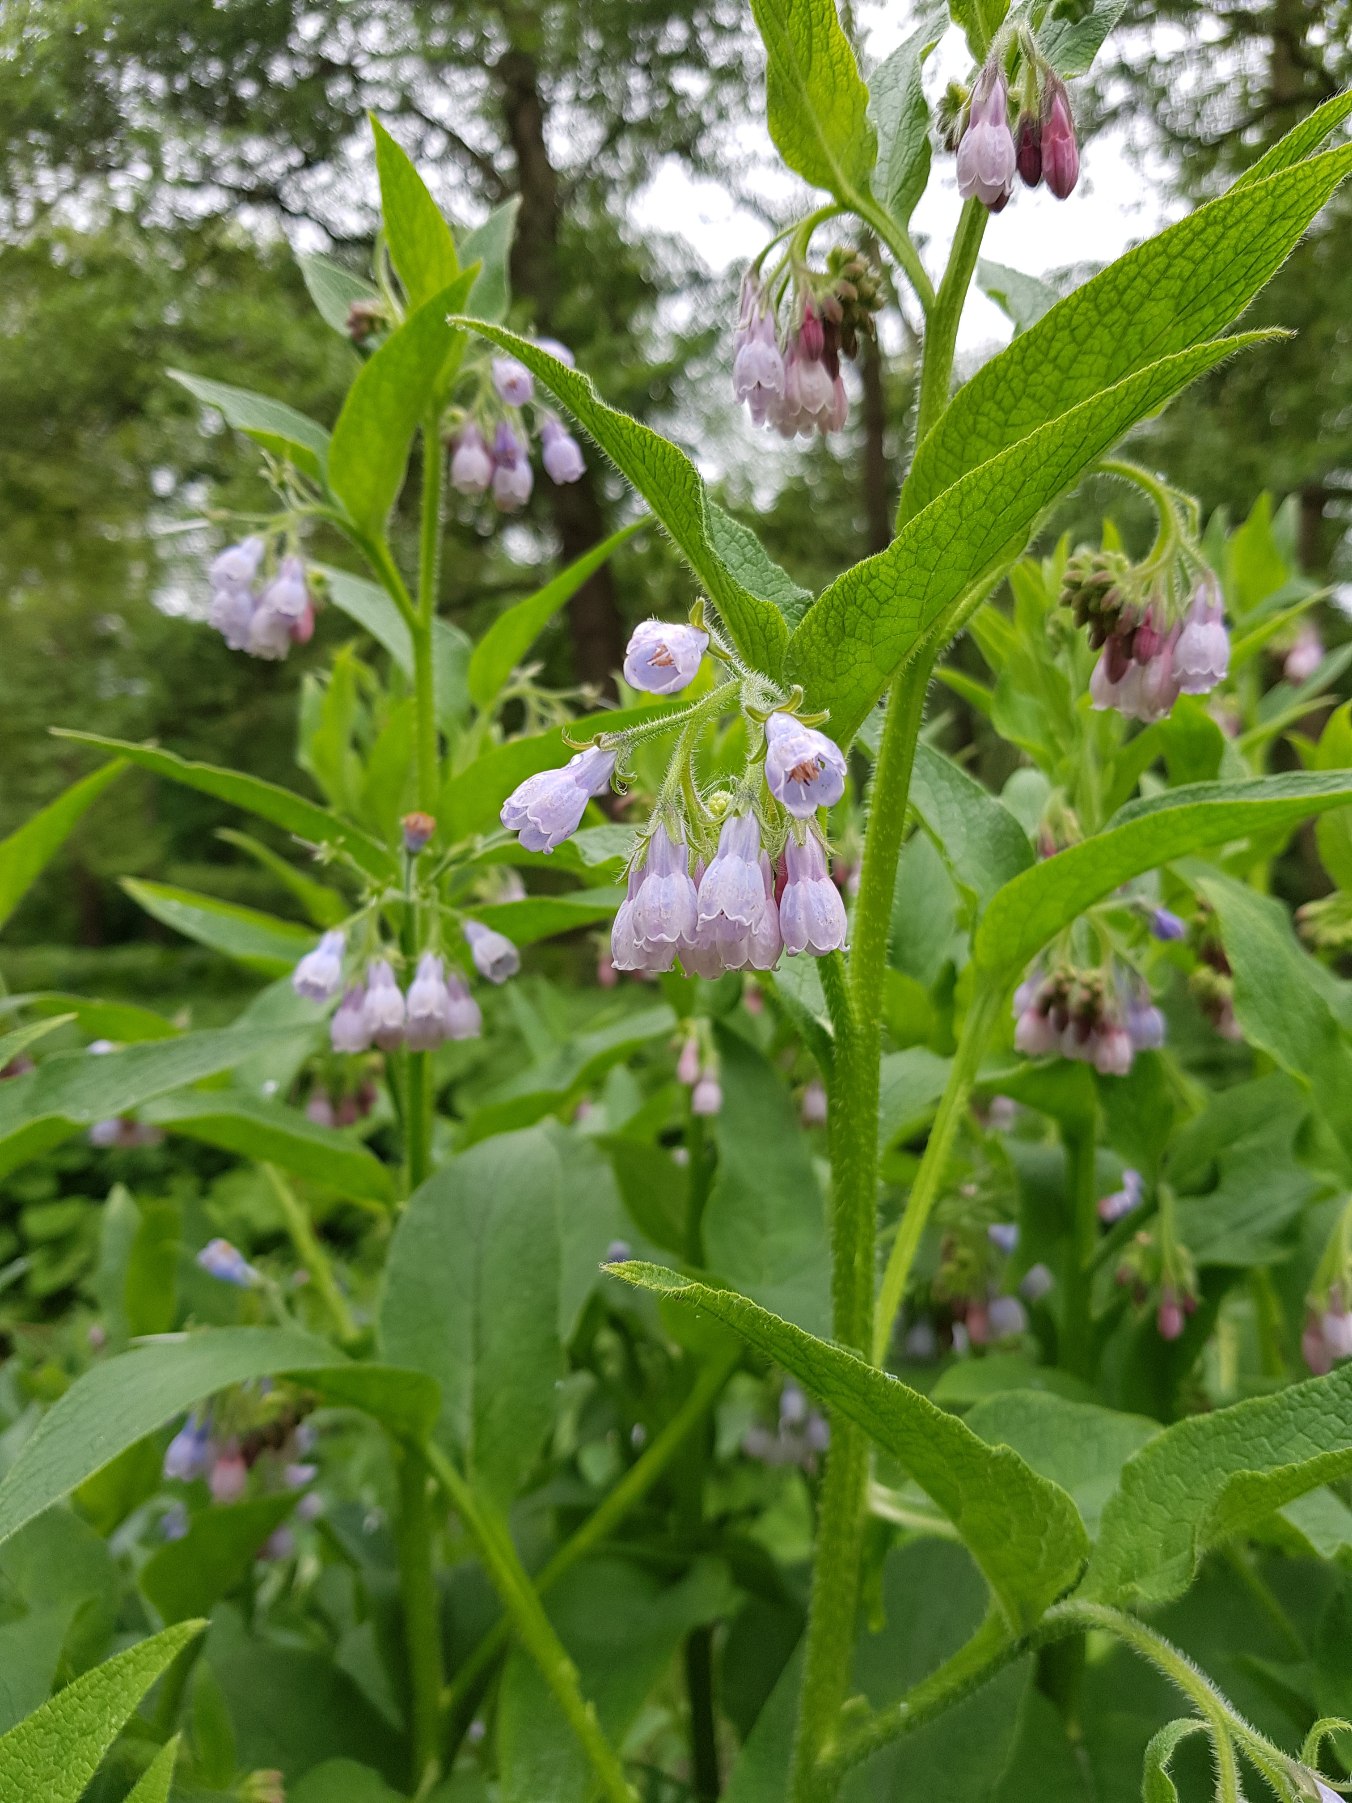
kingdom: Plantae
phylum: Tracheophyta
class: Magnoliopsida
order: Boraginales
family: Boraginaceae
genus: Symphytum
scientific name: Symphytum uplandicum
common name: Foder-kulsukker
